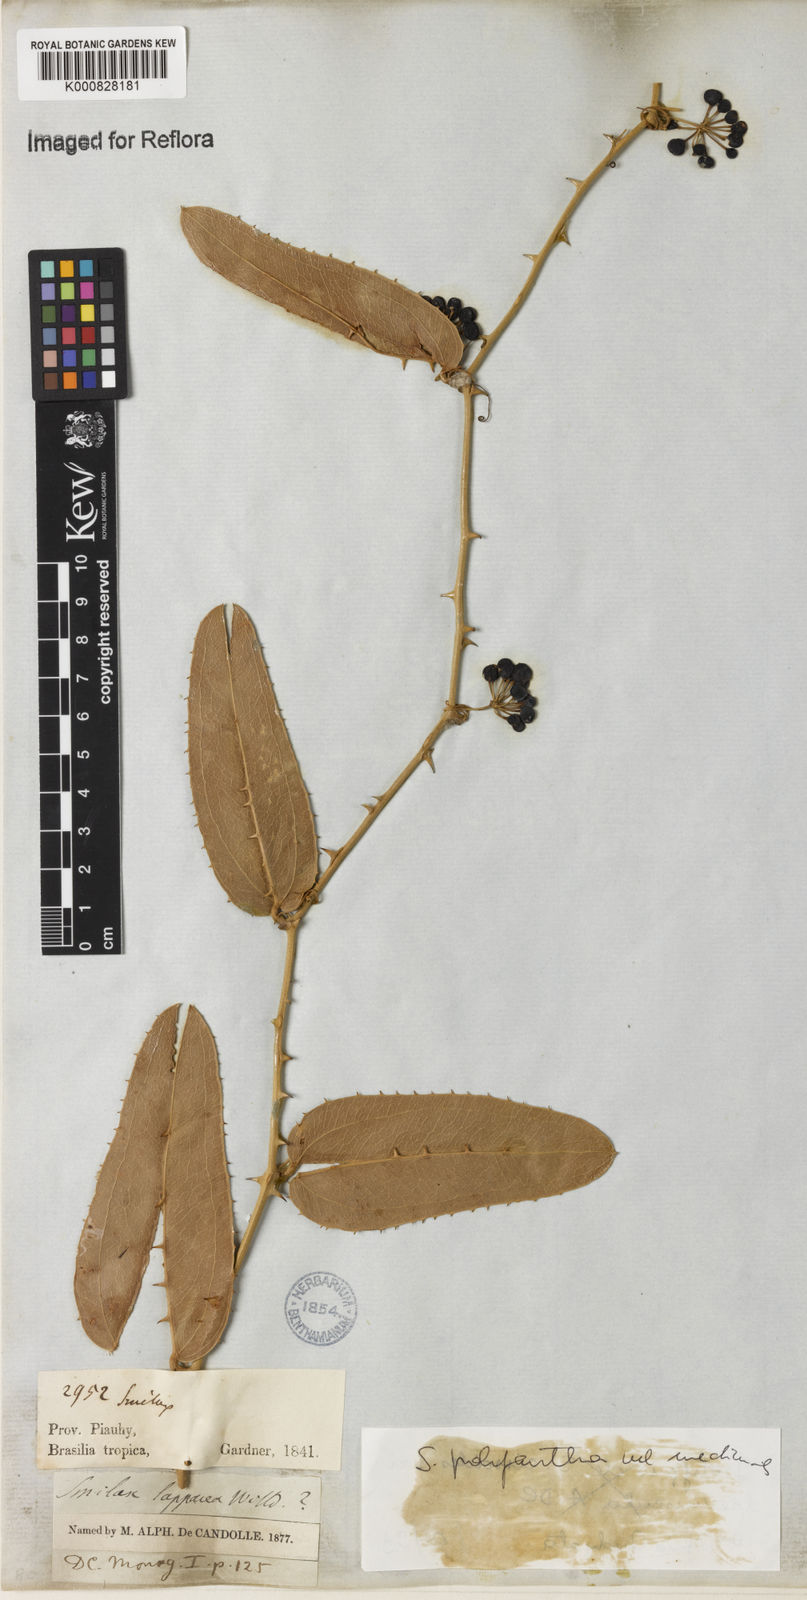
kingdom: Plantae
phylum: Tracheophyta
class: Liliopsida
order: Liliales
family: Smilacaceae
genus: Smilax
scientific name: Smilax polyantha
